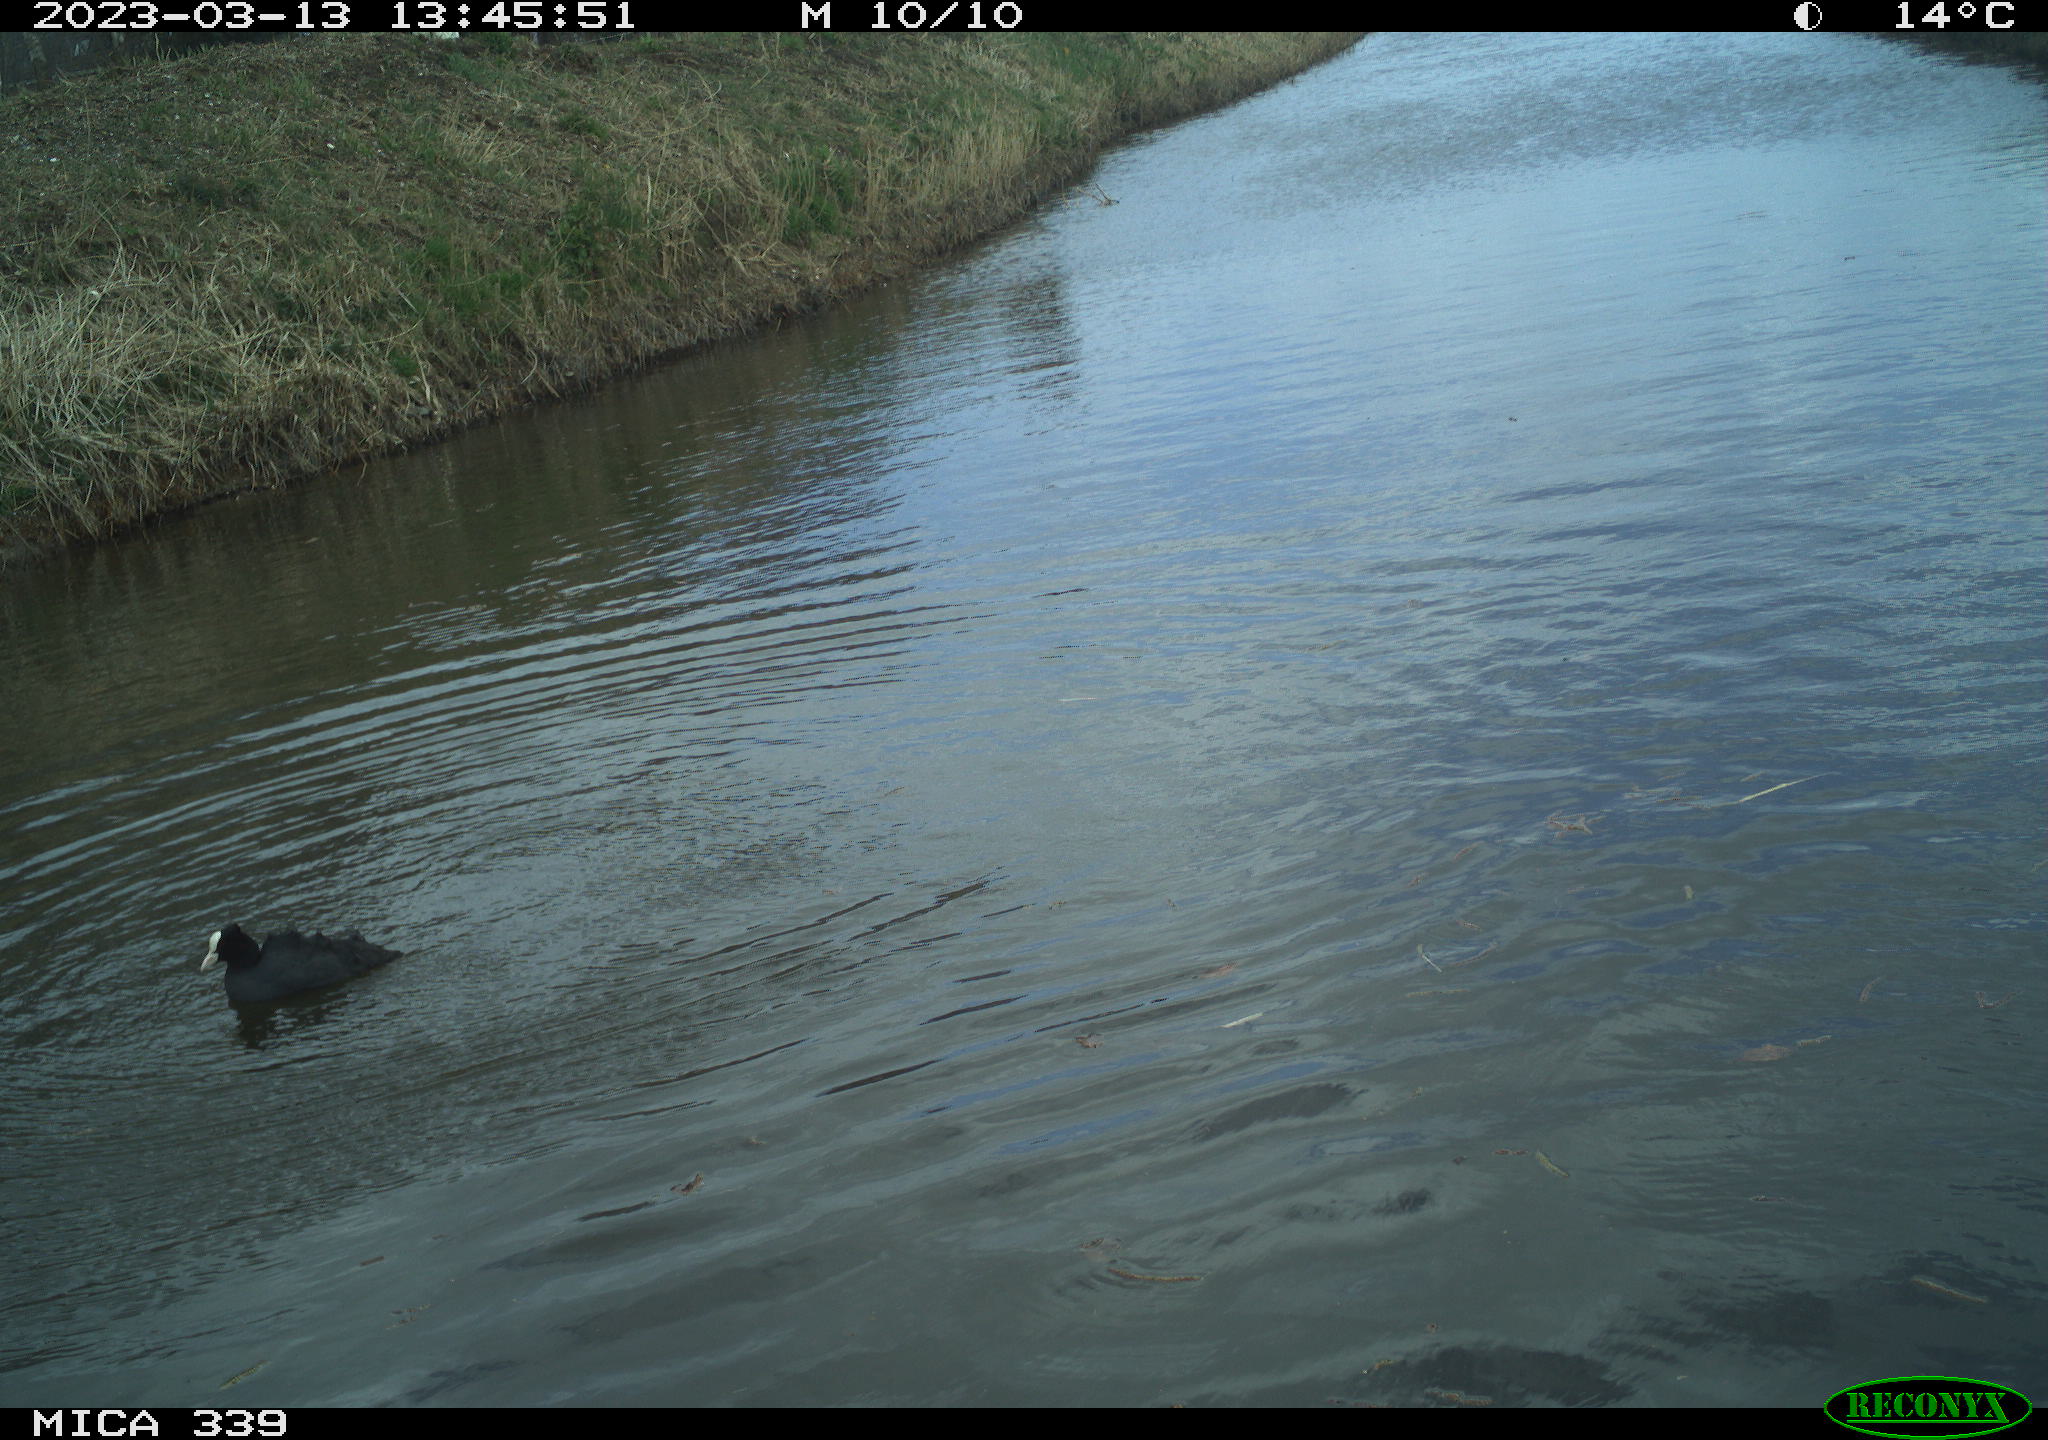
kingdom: Animalia
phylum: Chordata
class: Aves
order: Gruiformes
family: Rallidae
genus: Fulica
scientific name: Fulica atra
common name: Eurasian coot
